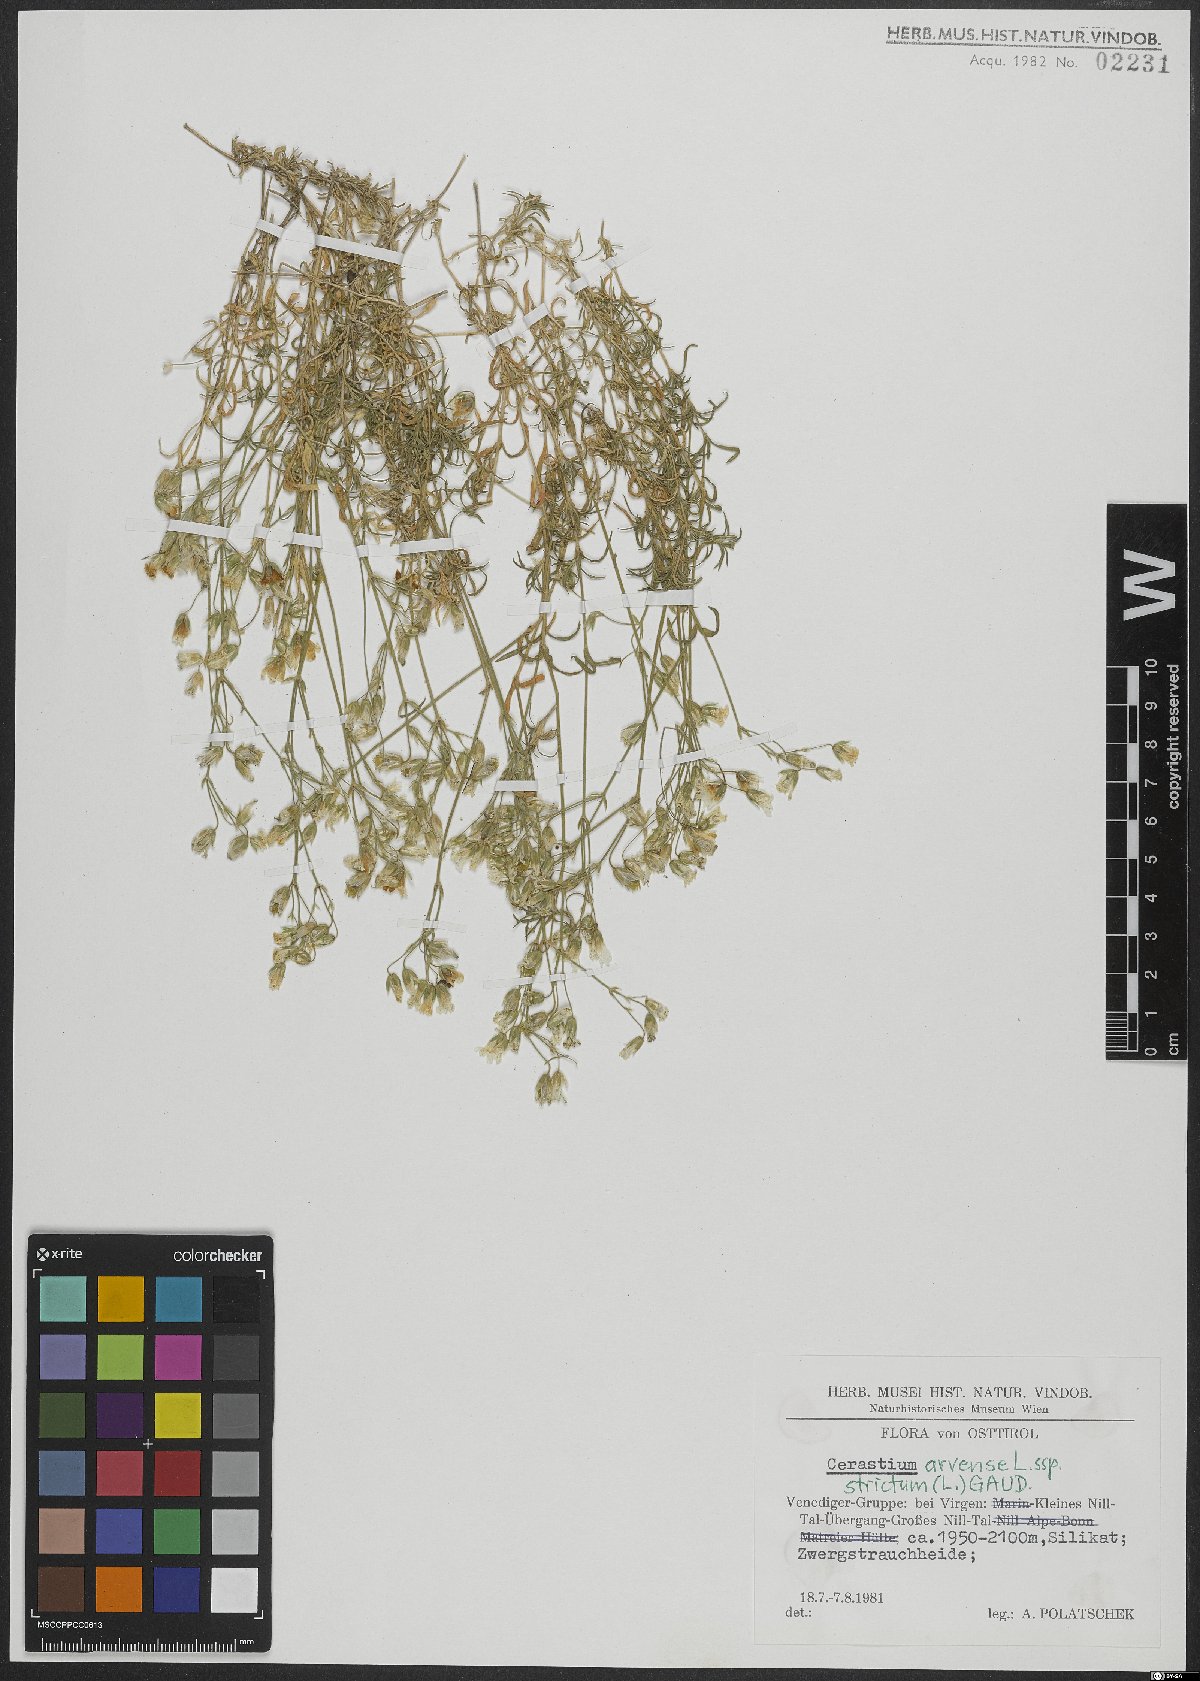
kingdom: Plantae
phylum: Tracheophyta
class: Magnoliopsida
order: Caryophyllales
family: Caryophyllaceae
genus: Cerastium
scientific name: Cerastium elongatum
